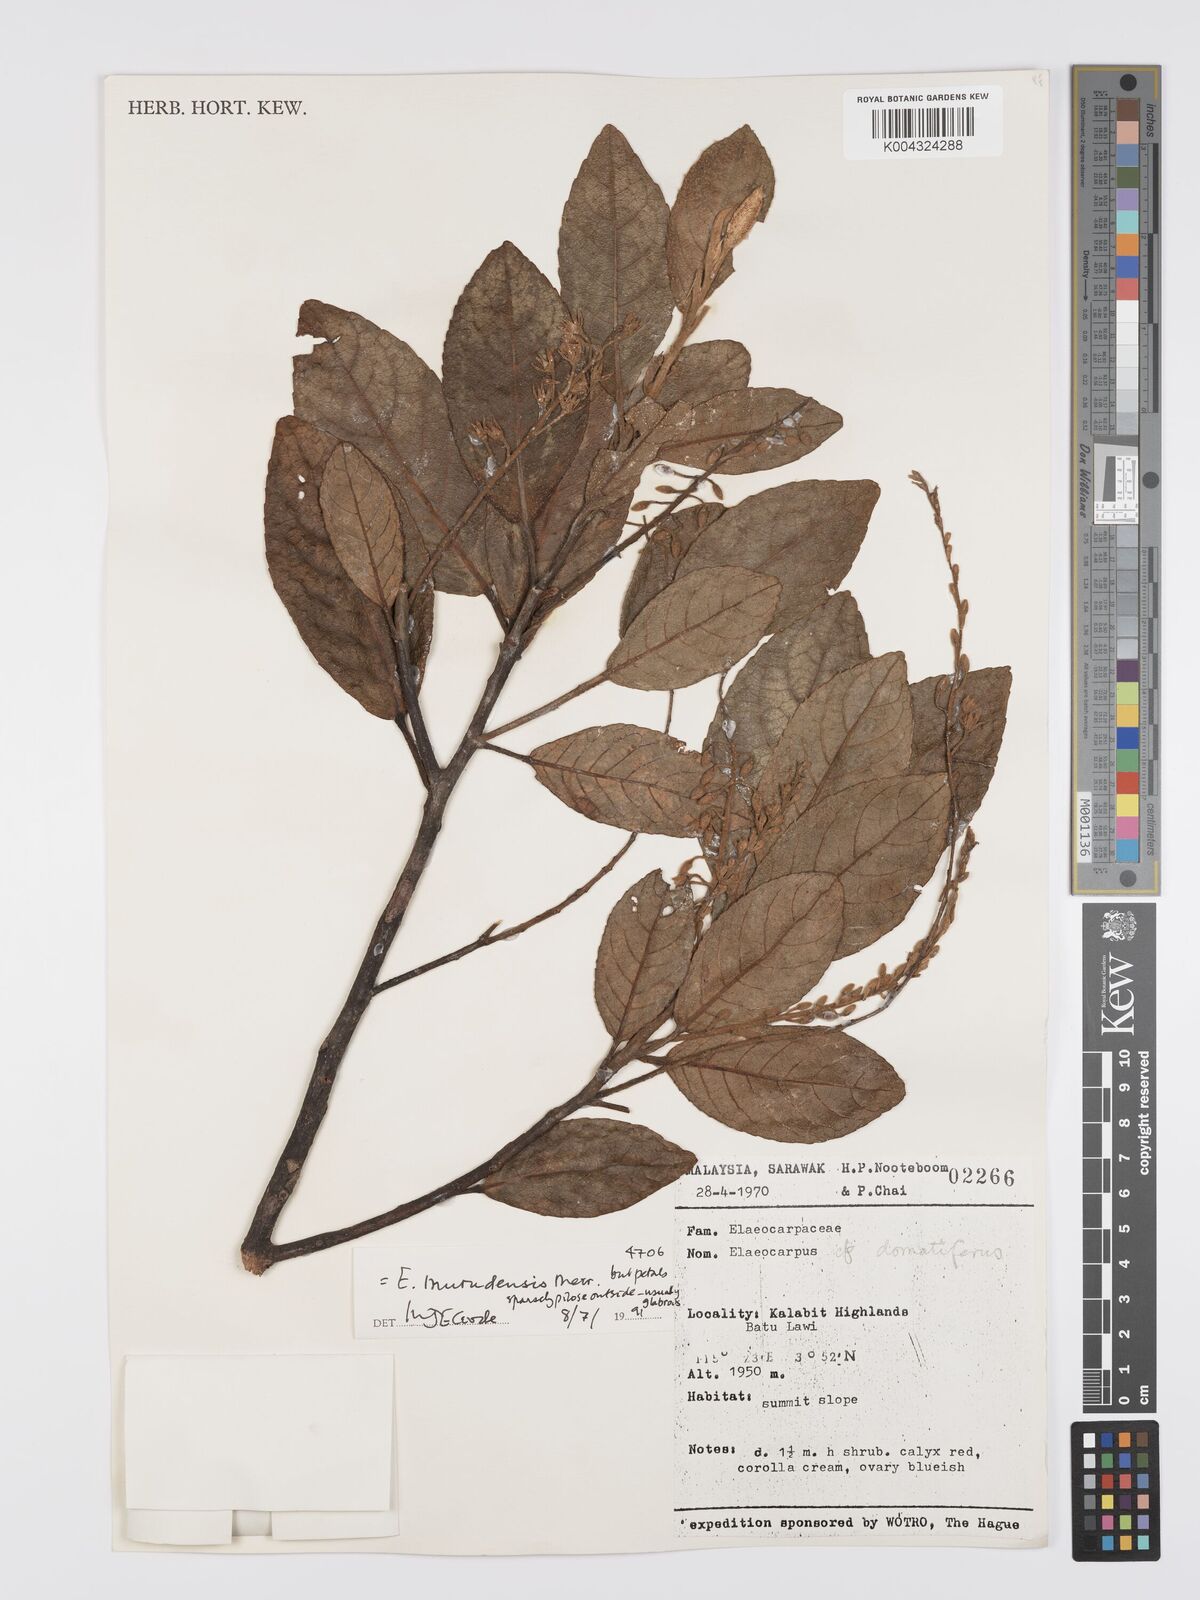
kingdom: Plantae
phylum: Tracheophyta
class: Magnoliopsida
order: Oxalidales
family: Elaeocarpaceae
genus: Elaeocarpus
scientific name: Elaeocarpus murudensis
